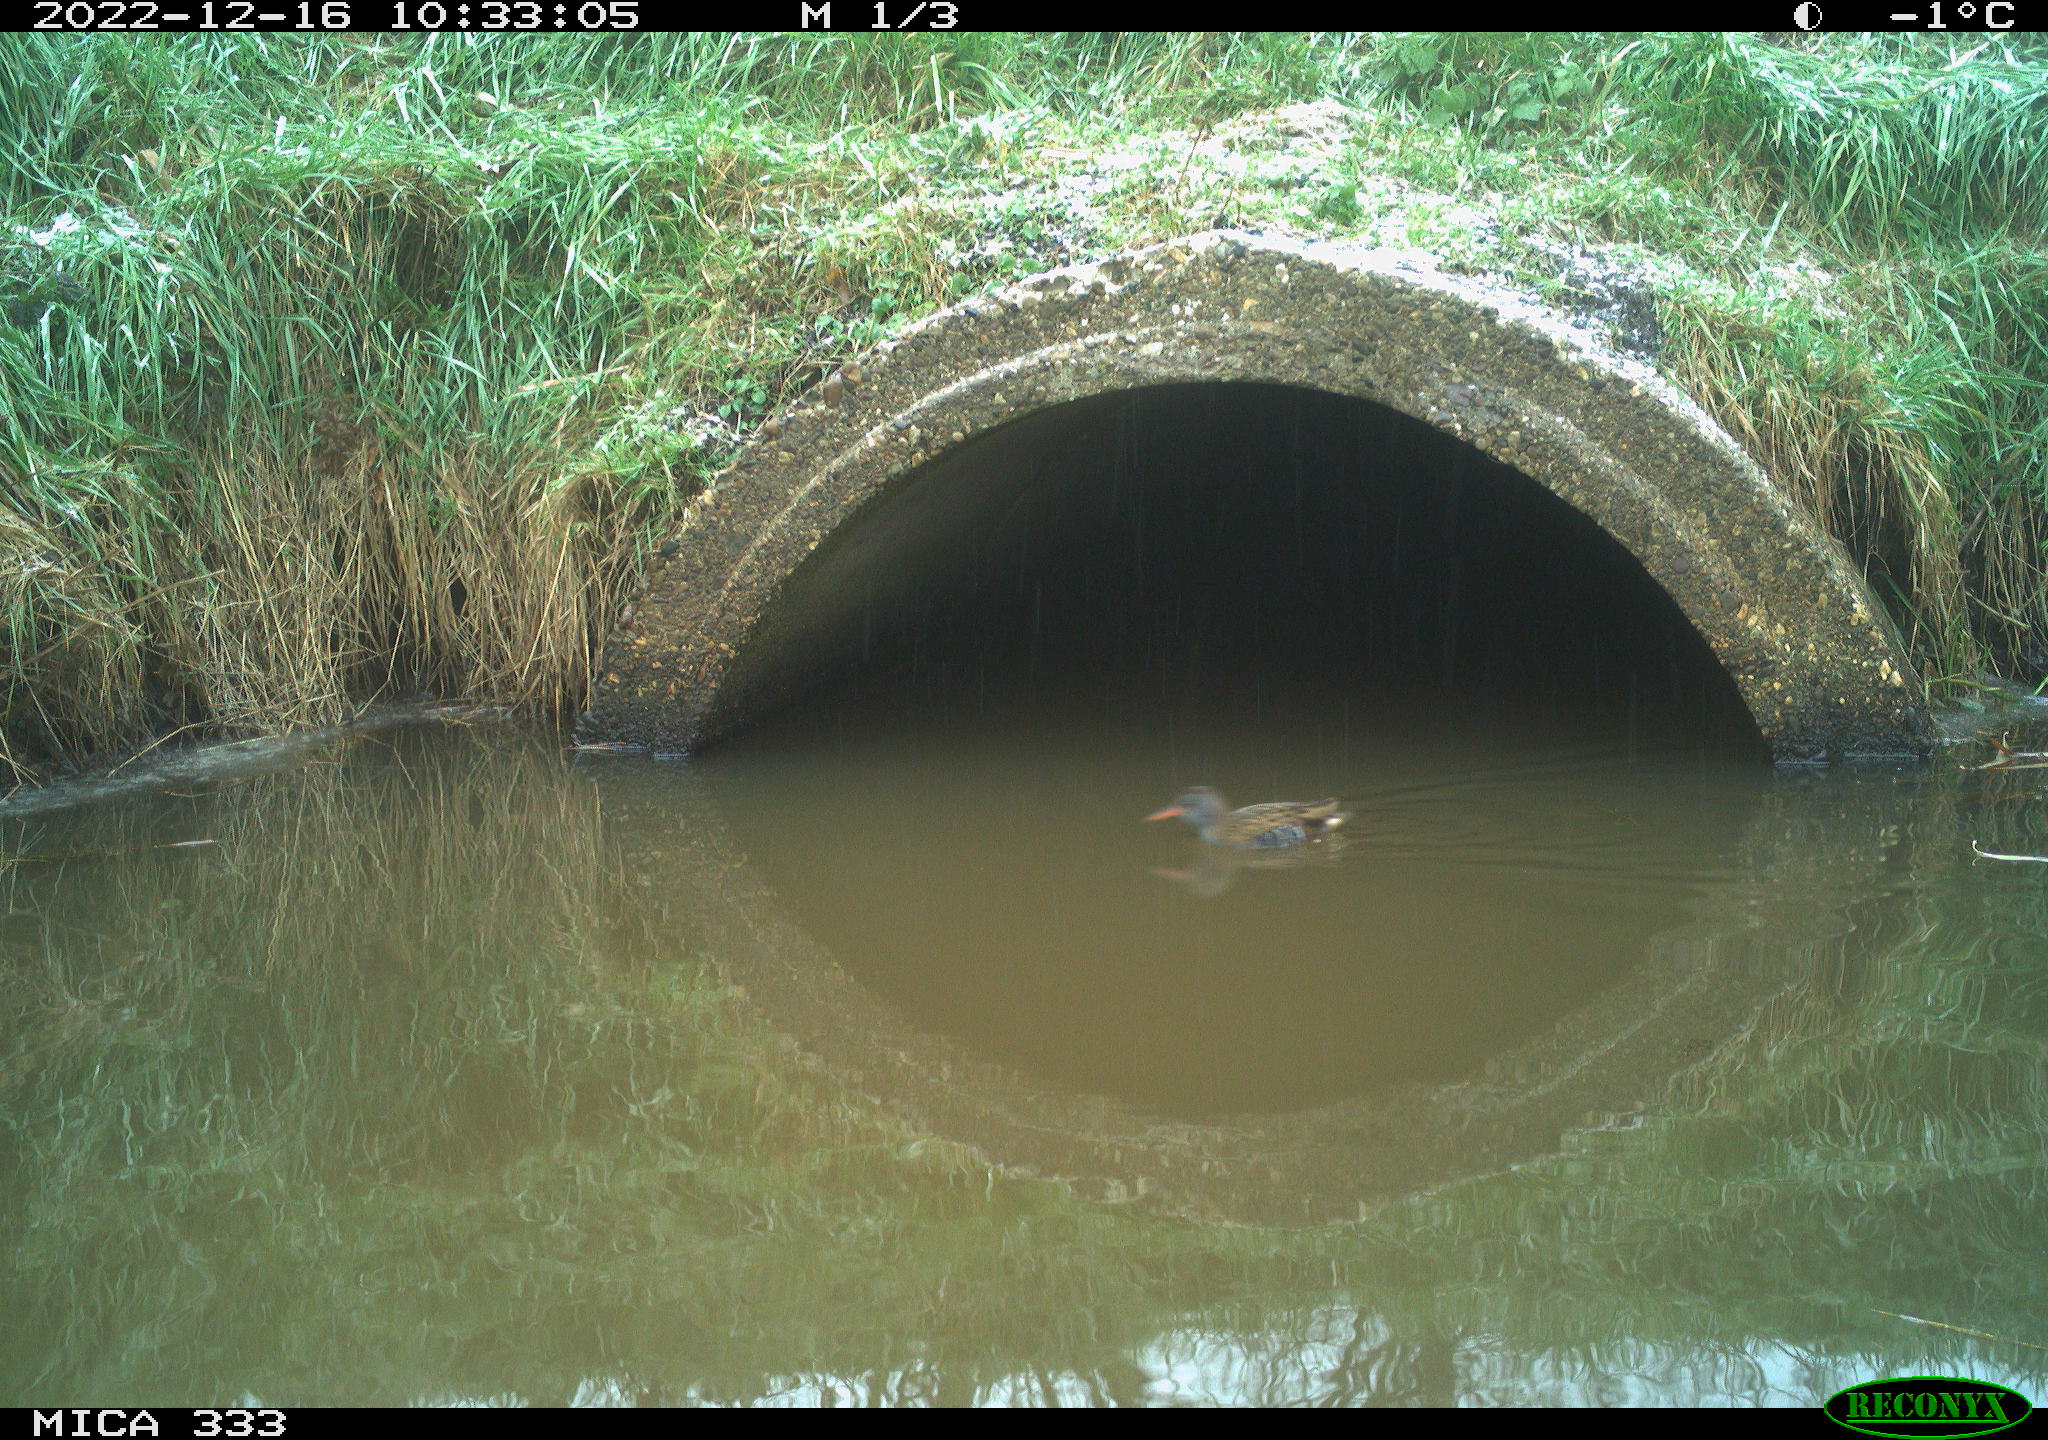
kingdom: Animalia
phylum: Chordata
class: Aves
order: Gruiformes
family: Rallidae
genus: Rallus
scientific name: Rallus aquaticus
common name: Water rail
